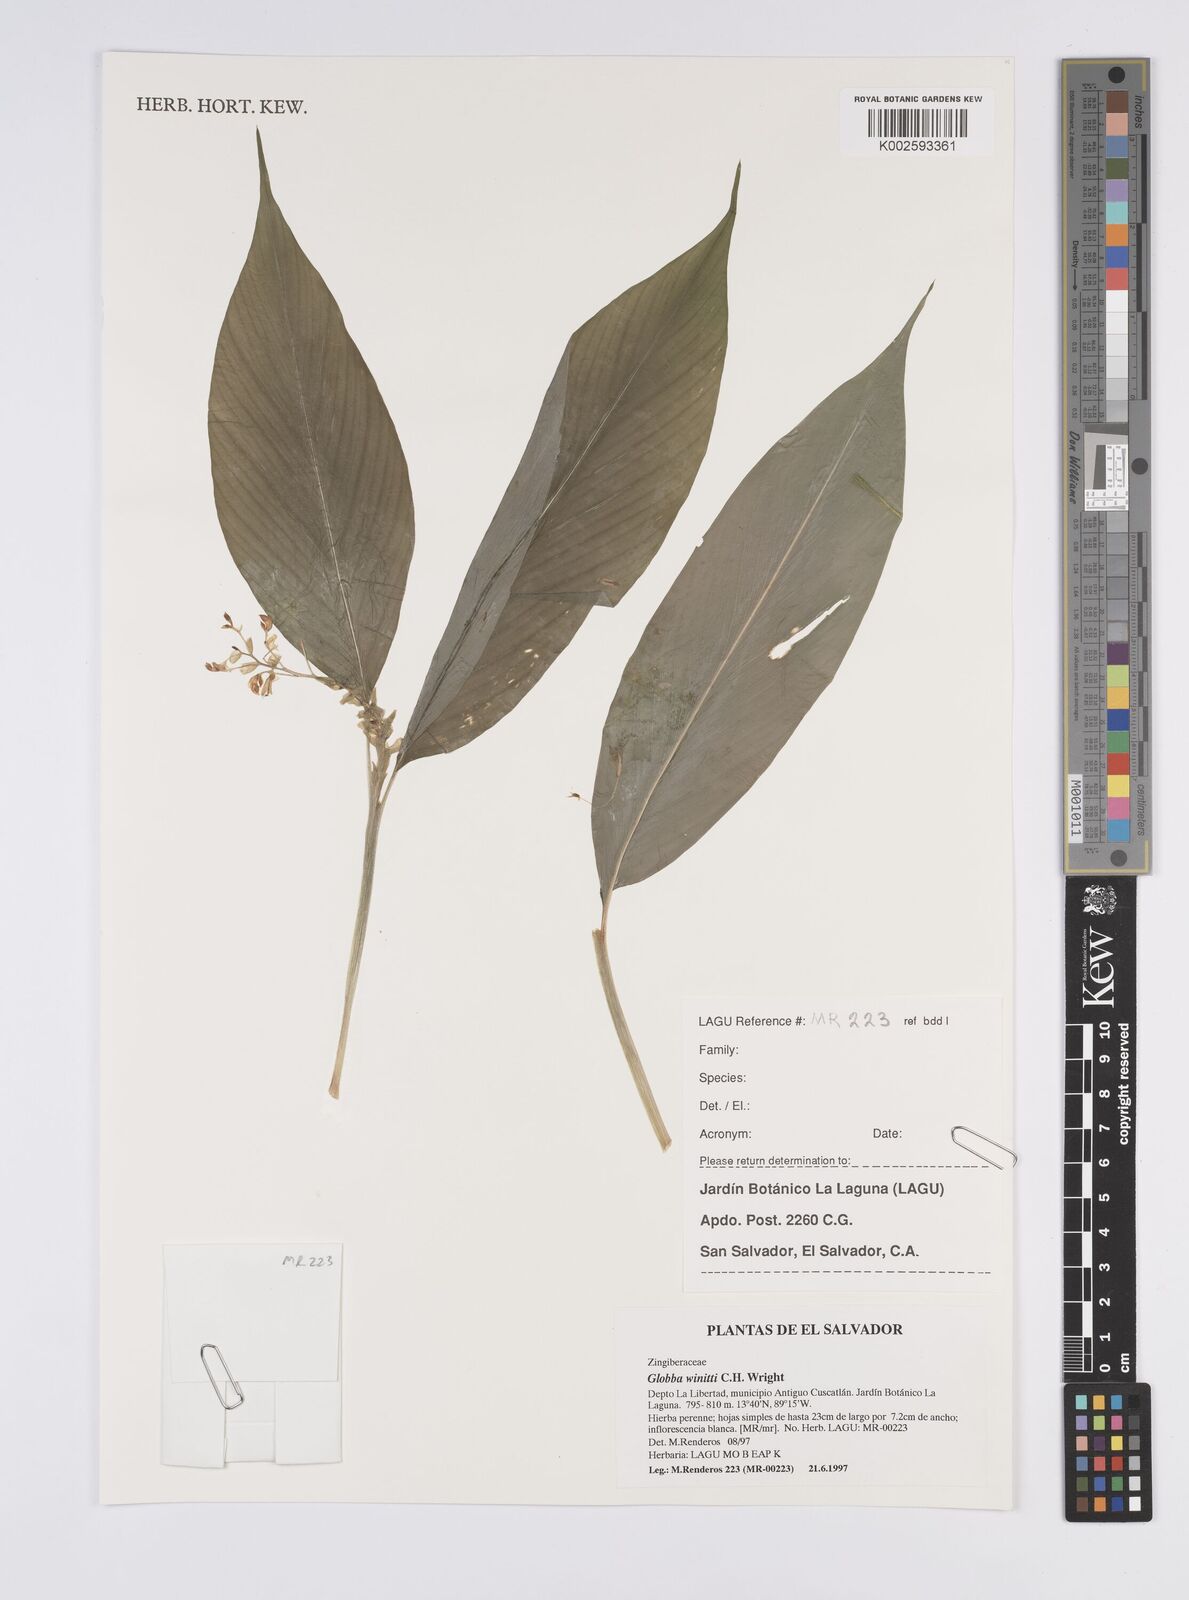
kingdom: Plantae
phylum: Tracheophyta
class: Liliopsida
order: Zingiberales
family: Zingiberaceae
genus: Globba
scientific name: Globba winitii
